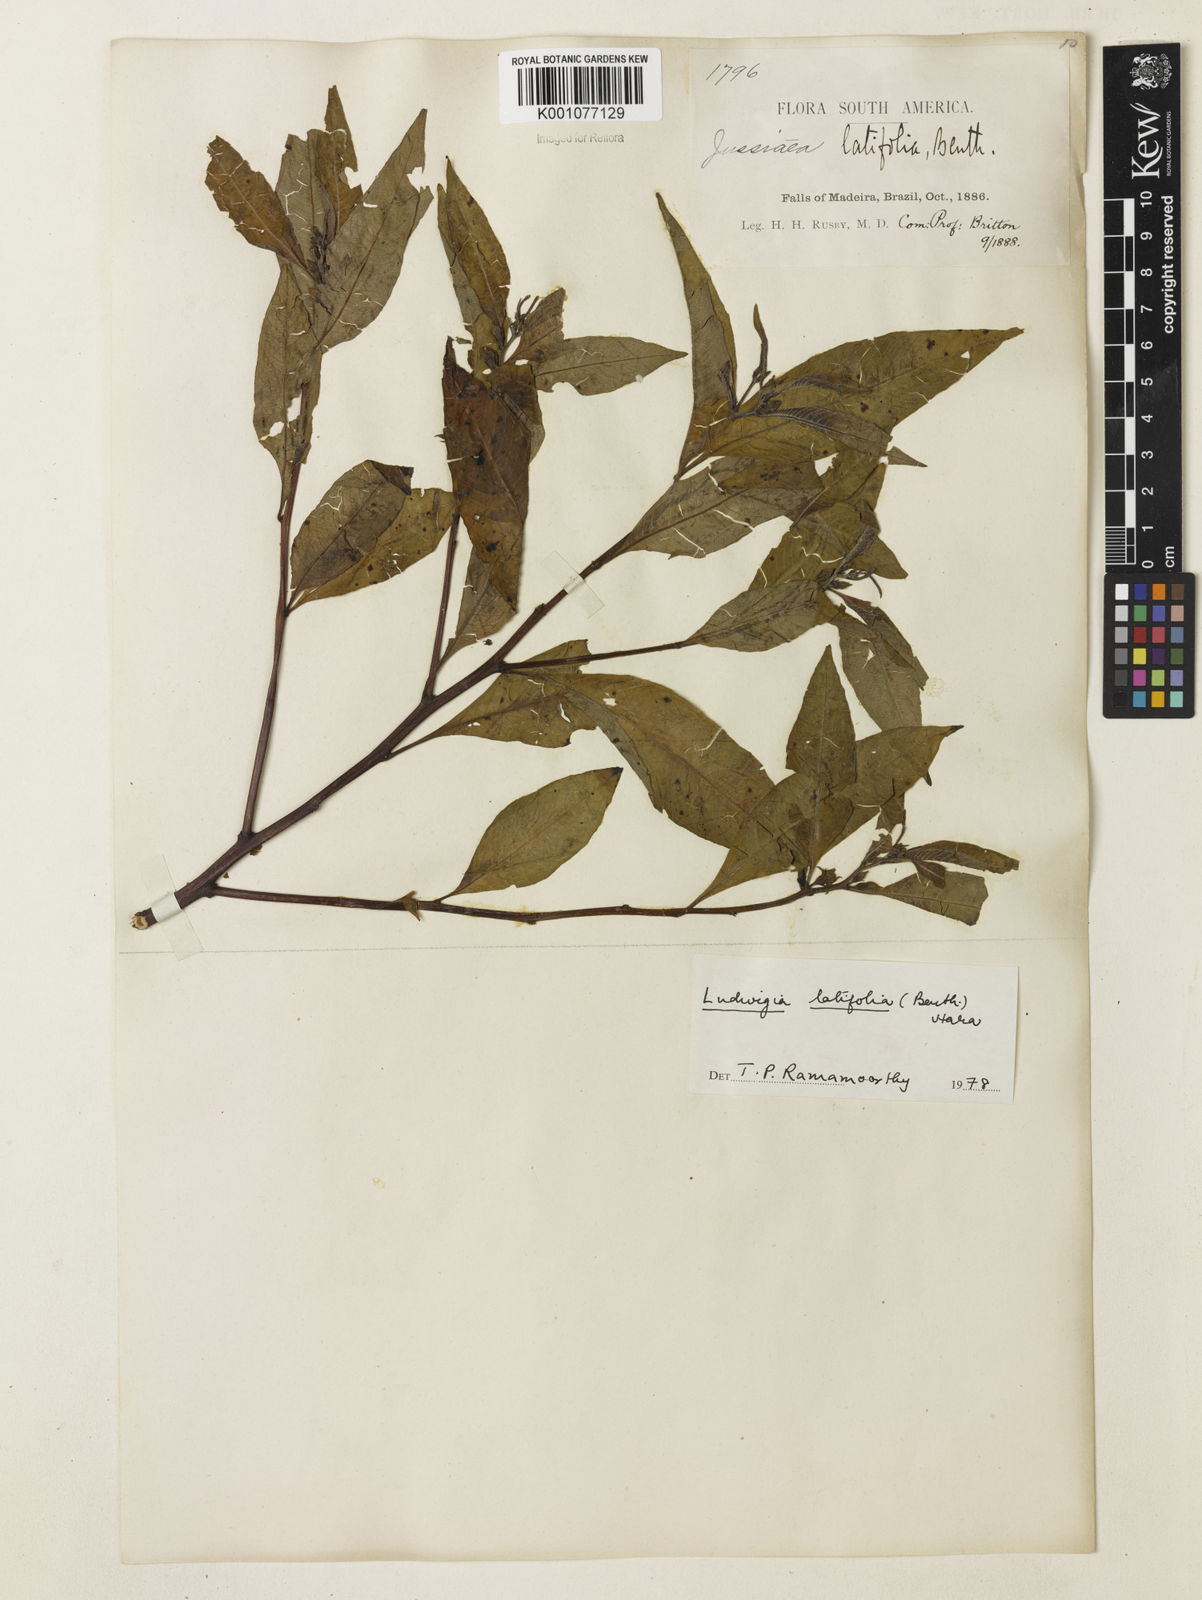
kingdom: Plantae
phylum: Tracheophyta
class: Magnoliopsida
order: Myrtales
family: Onagraceae
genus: Ludwigia
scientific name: Ludwigia latifolia
